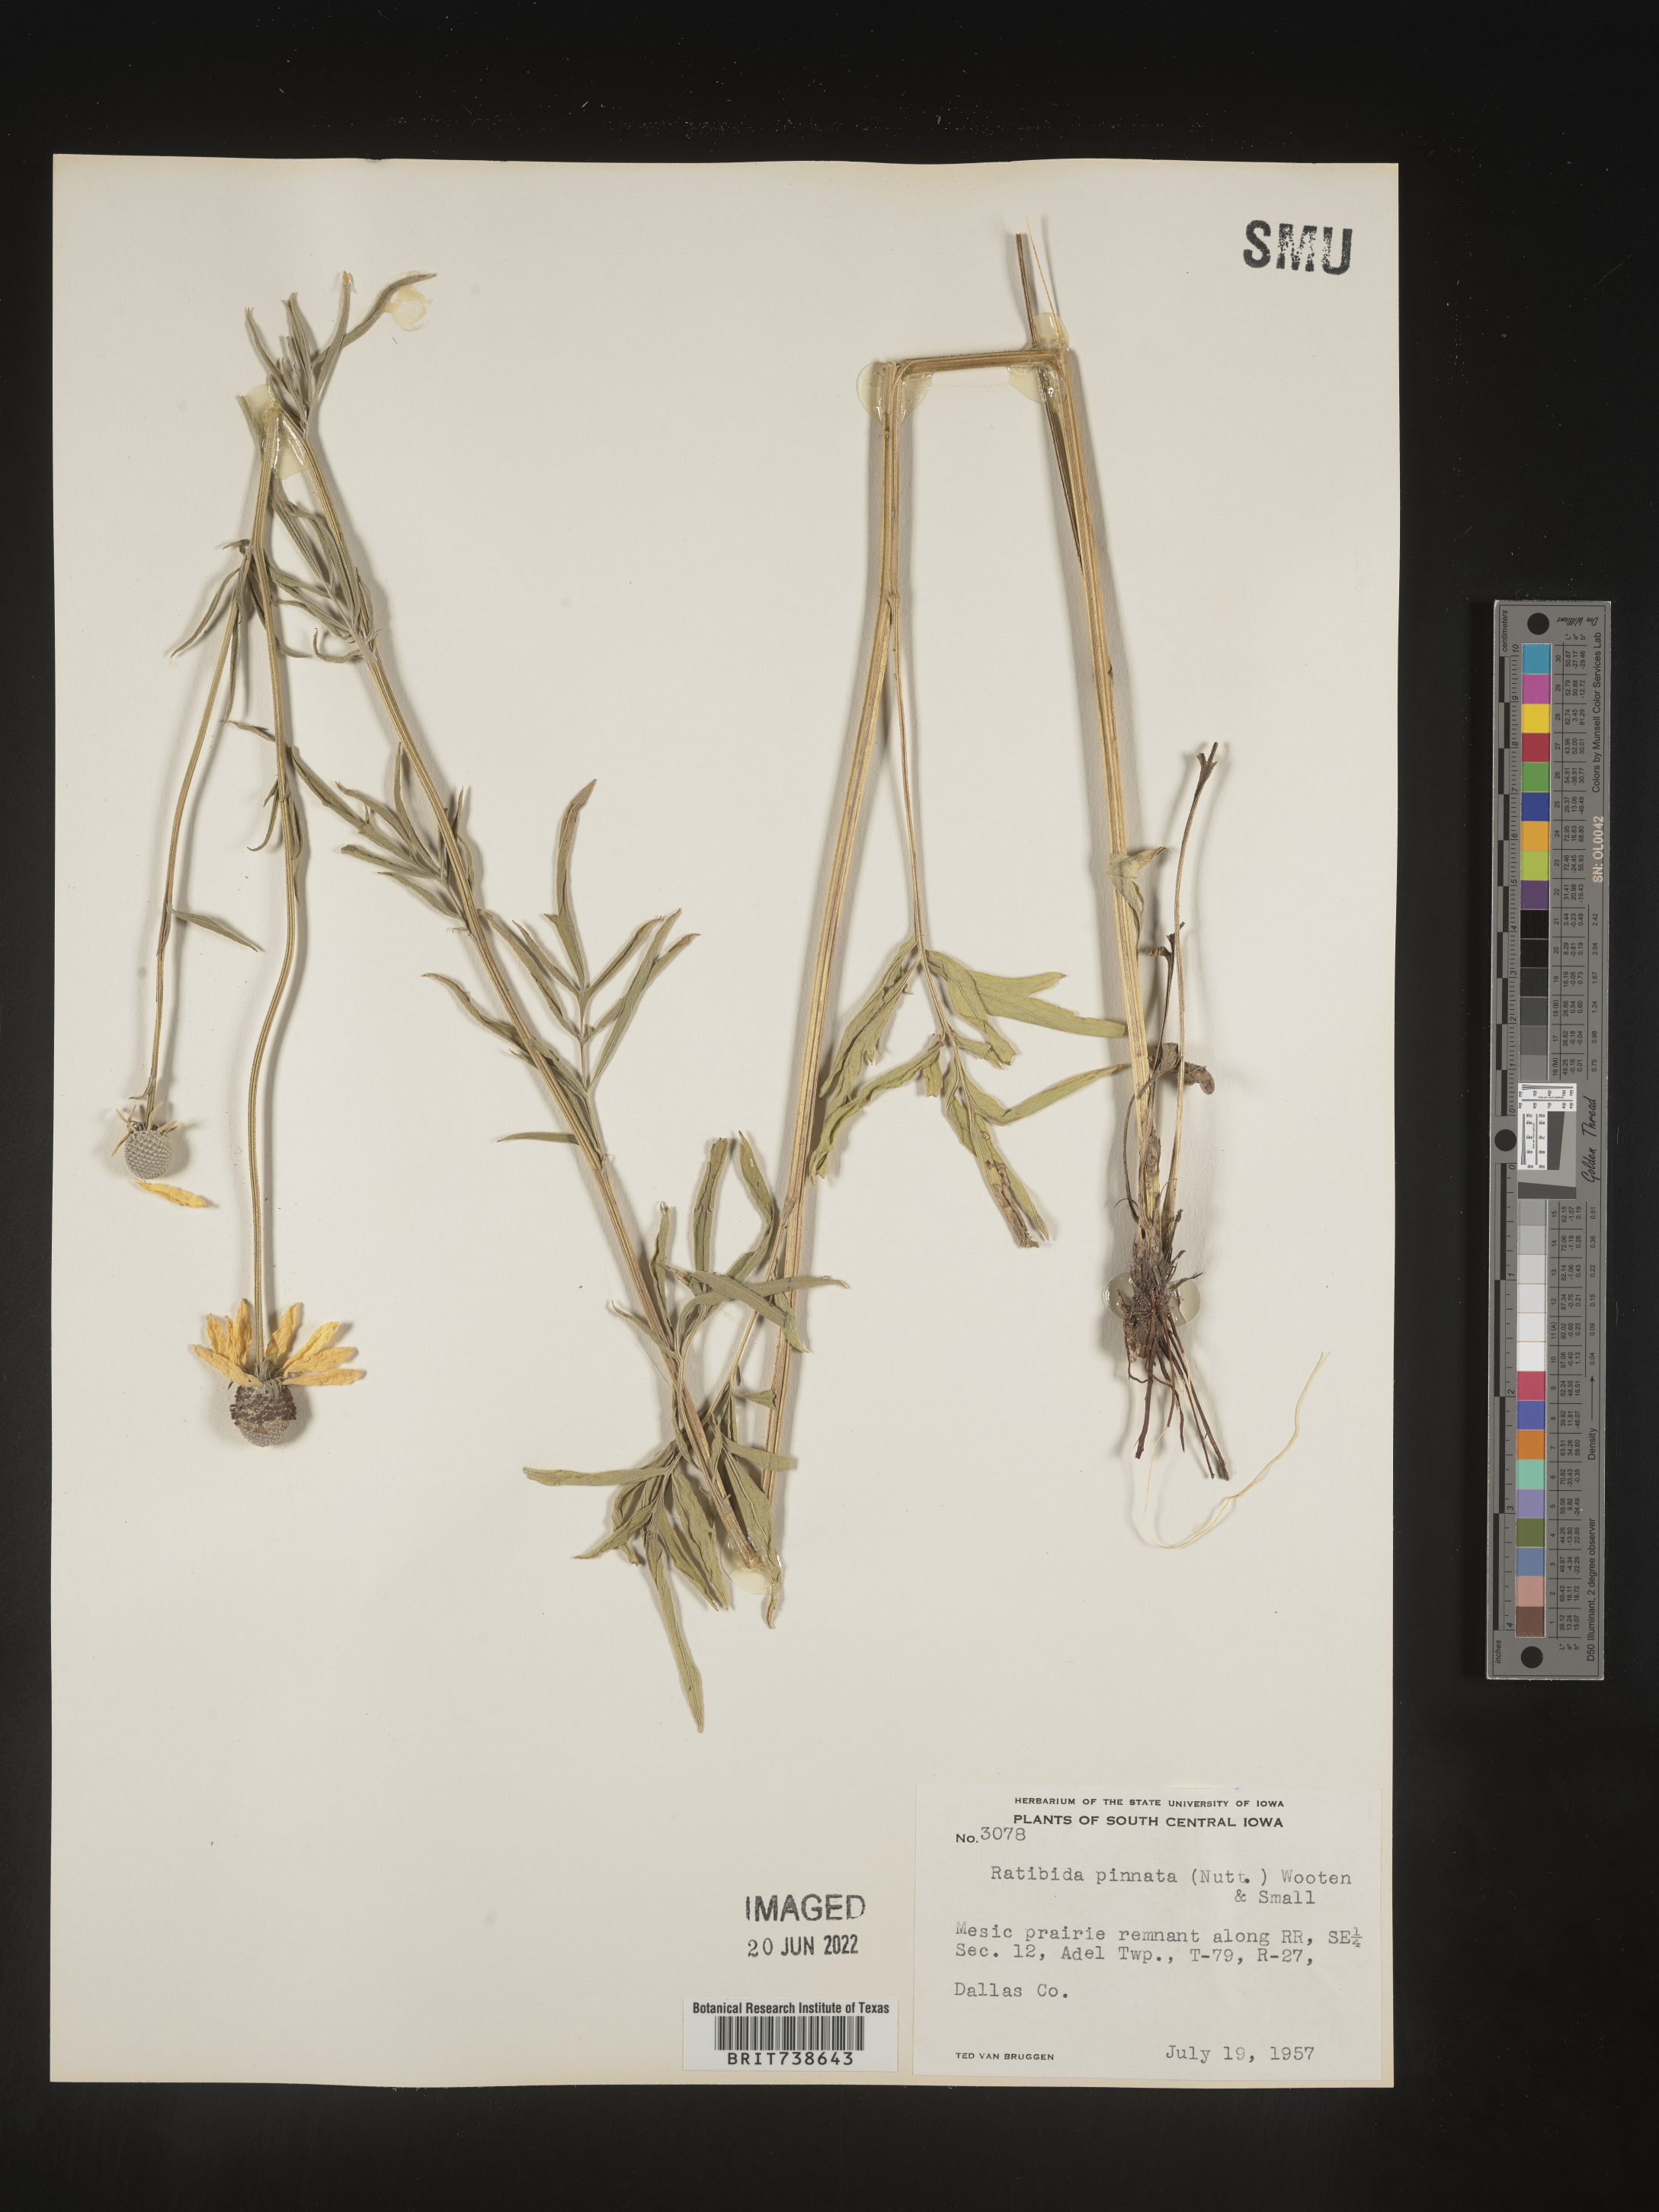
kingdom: Plantae
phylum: Tracheophyta
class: Magnoliopsida
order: Asterales
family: Asteraceae
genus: Ratibida
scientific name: Ratibida pinnata
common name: Drooping prairie-coneflower
